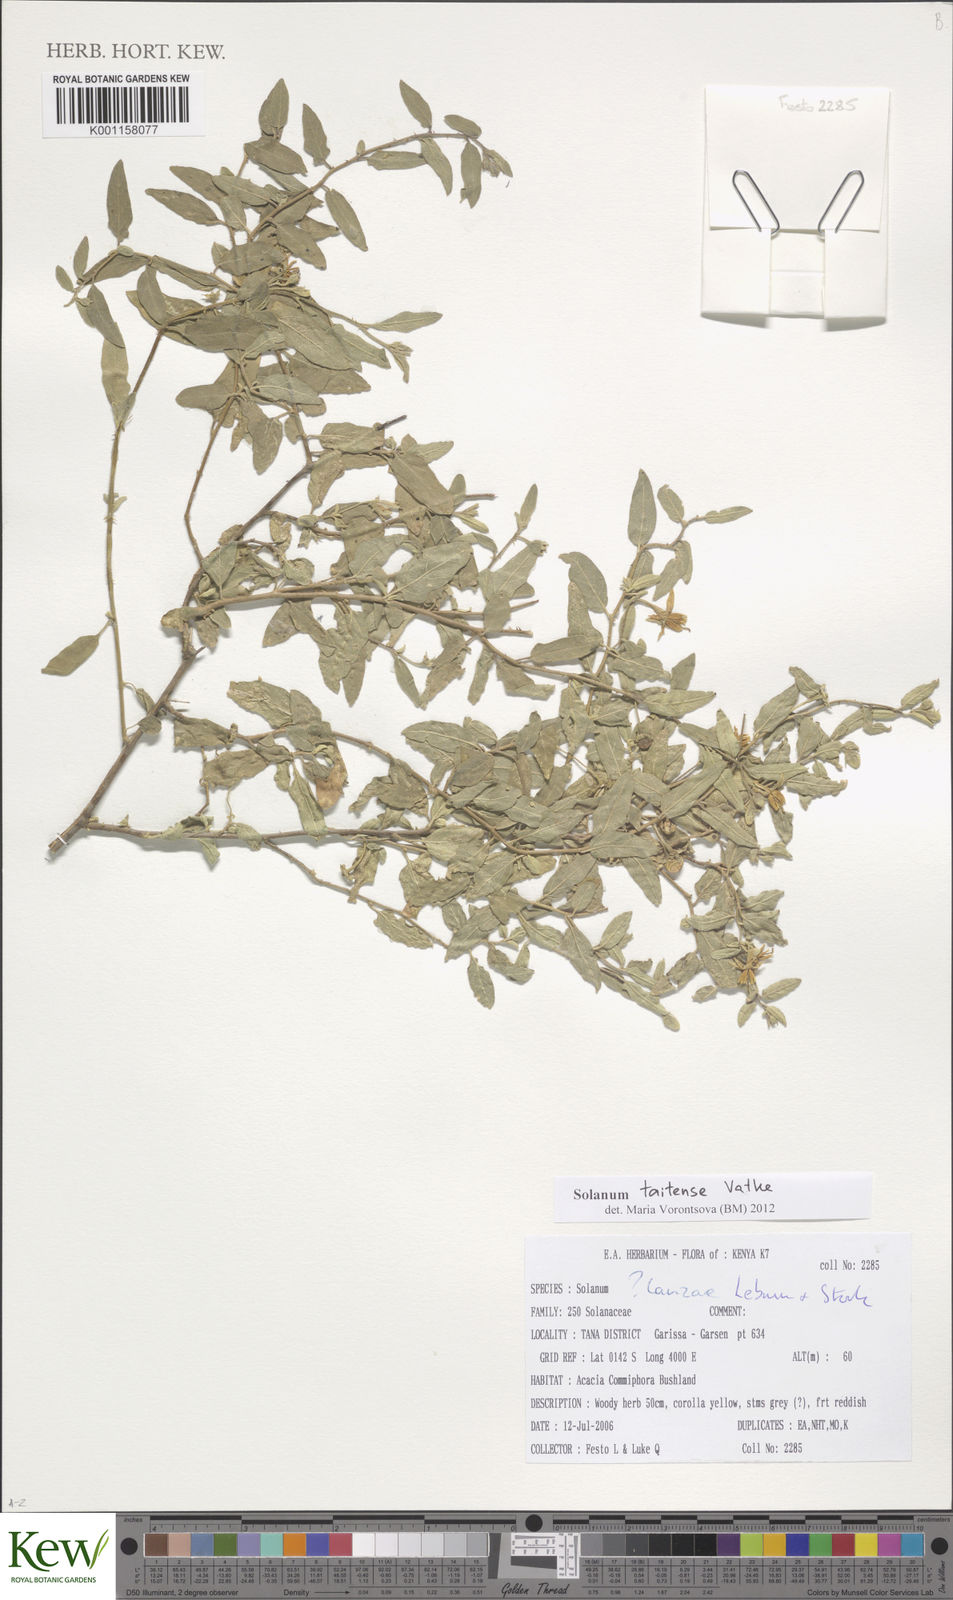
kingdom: Plantae
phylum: Tracheophyta
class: Magnoliopsida
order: Solanales
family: Solanaceae
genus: Solanum
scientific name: Solanum taitense
